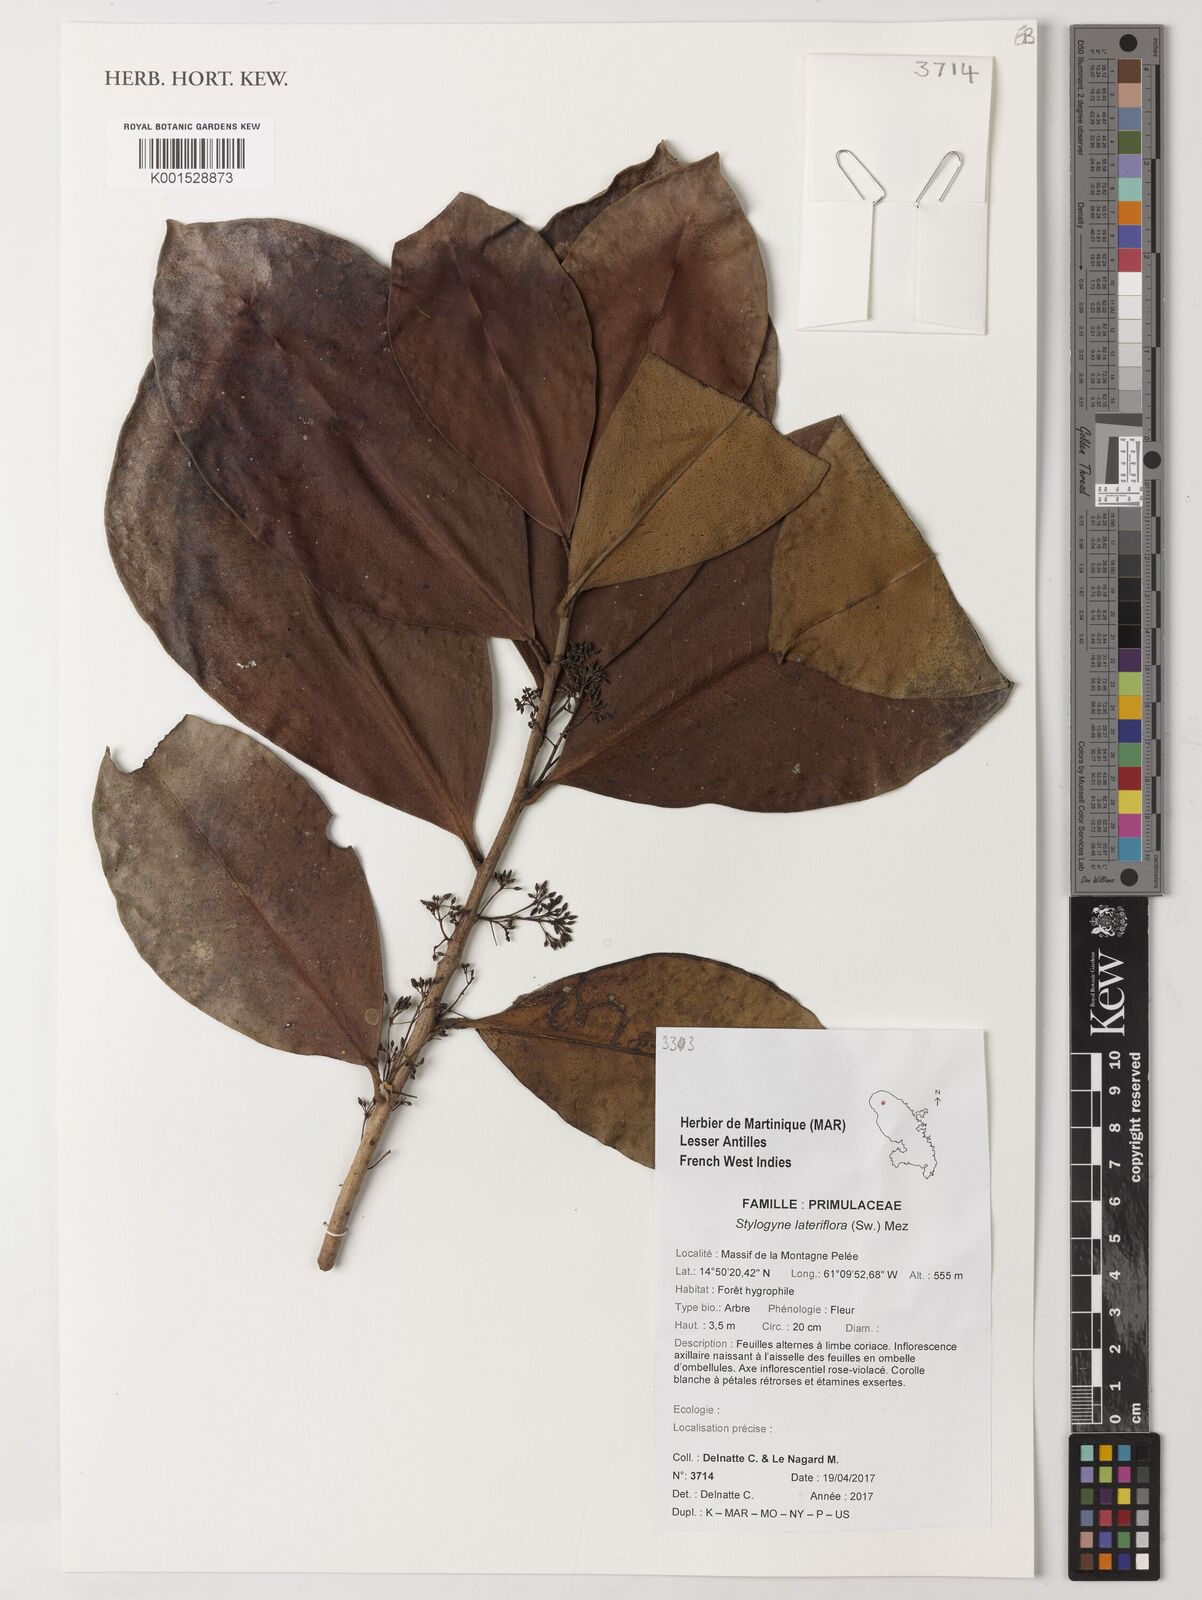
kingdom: Plantae
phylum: Tracheophyta
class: Magnoliopsida
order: Ericales
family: Primulaceae
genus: Stylogyne
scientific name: Stylogyne lateriflora
